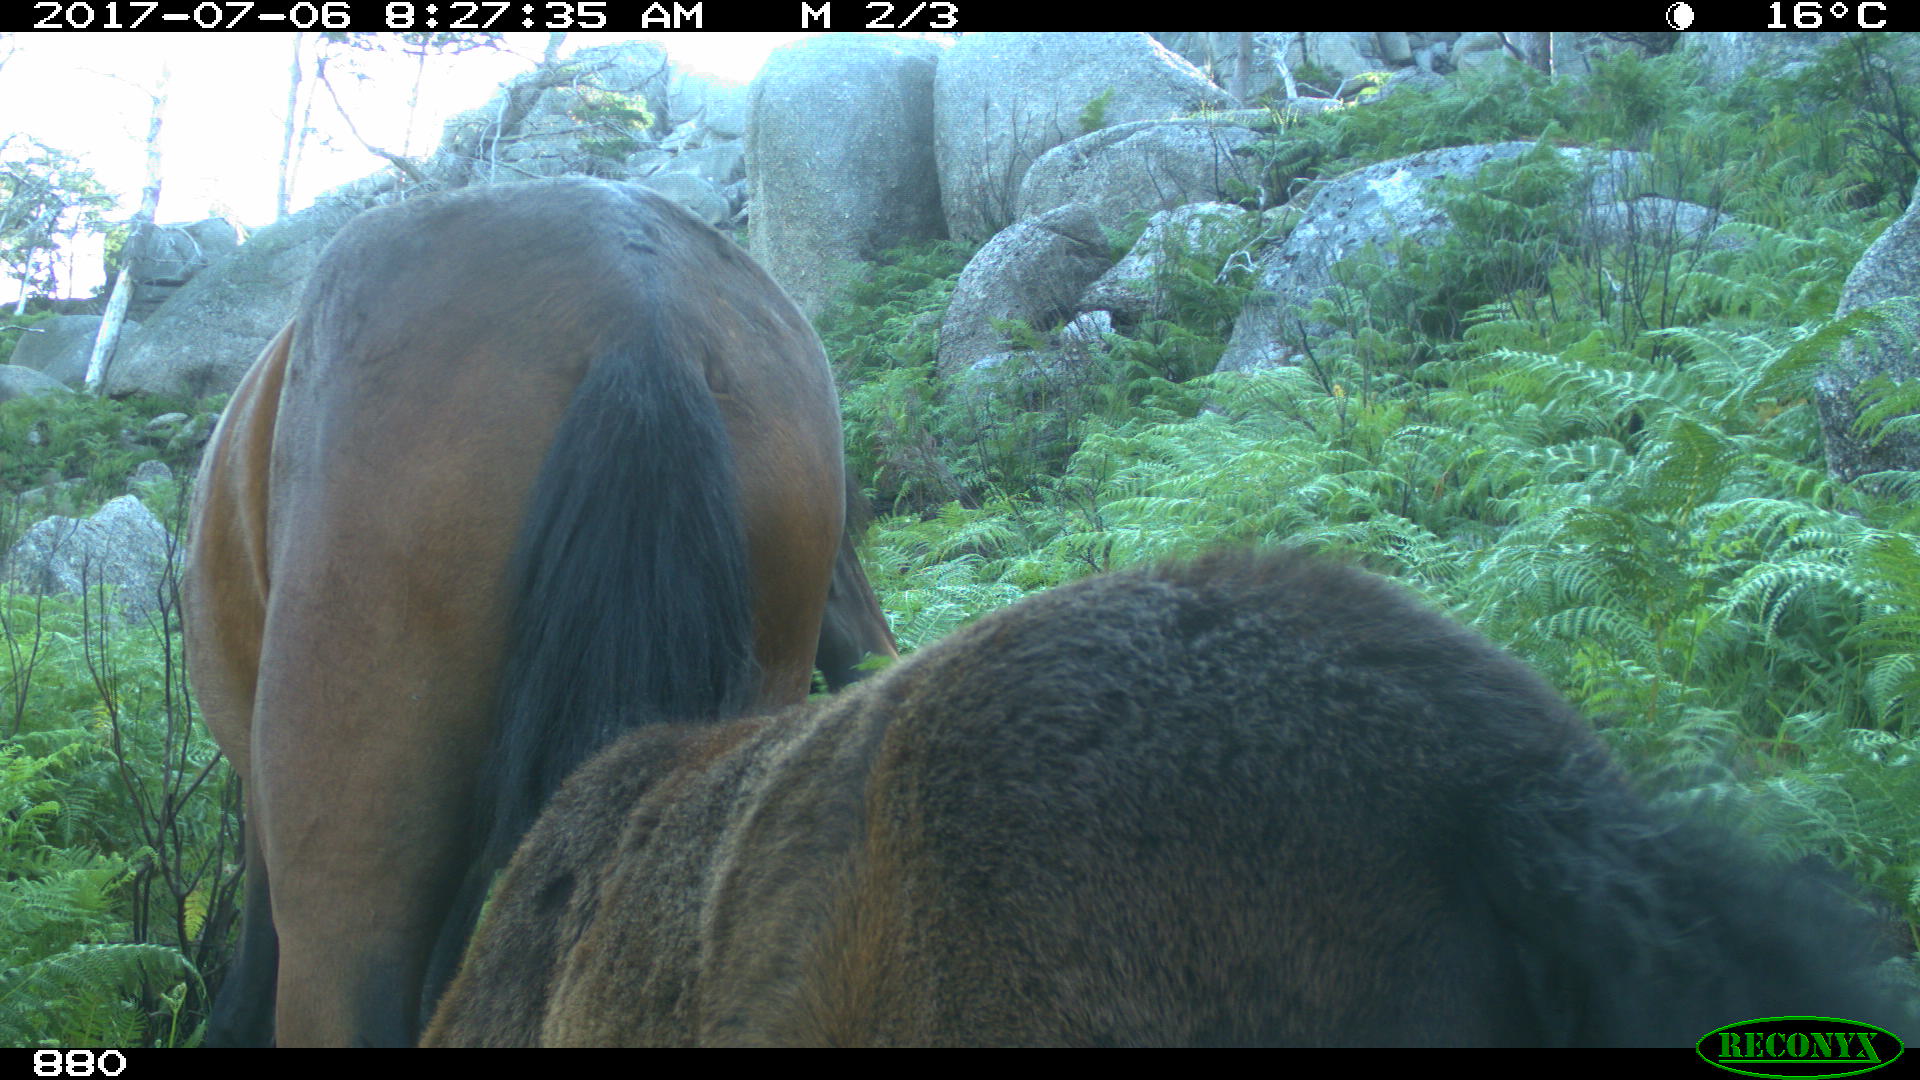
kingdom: Animalia
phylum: Chordata
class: Mammalia
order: Perissodactyla
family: Equidae
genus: Equus
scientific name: Equus caballus
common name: Horse
